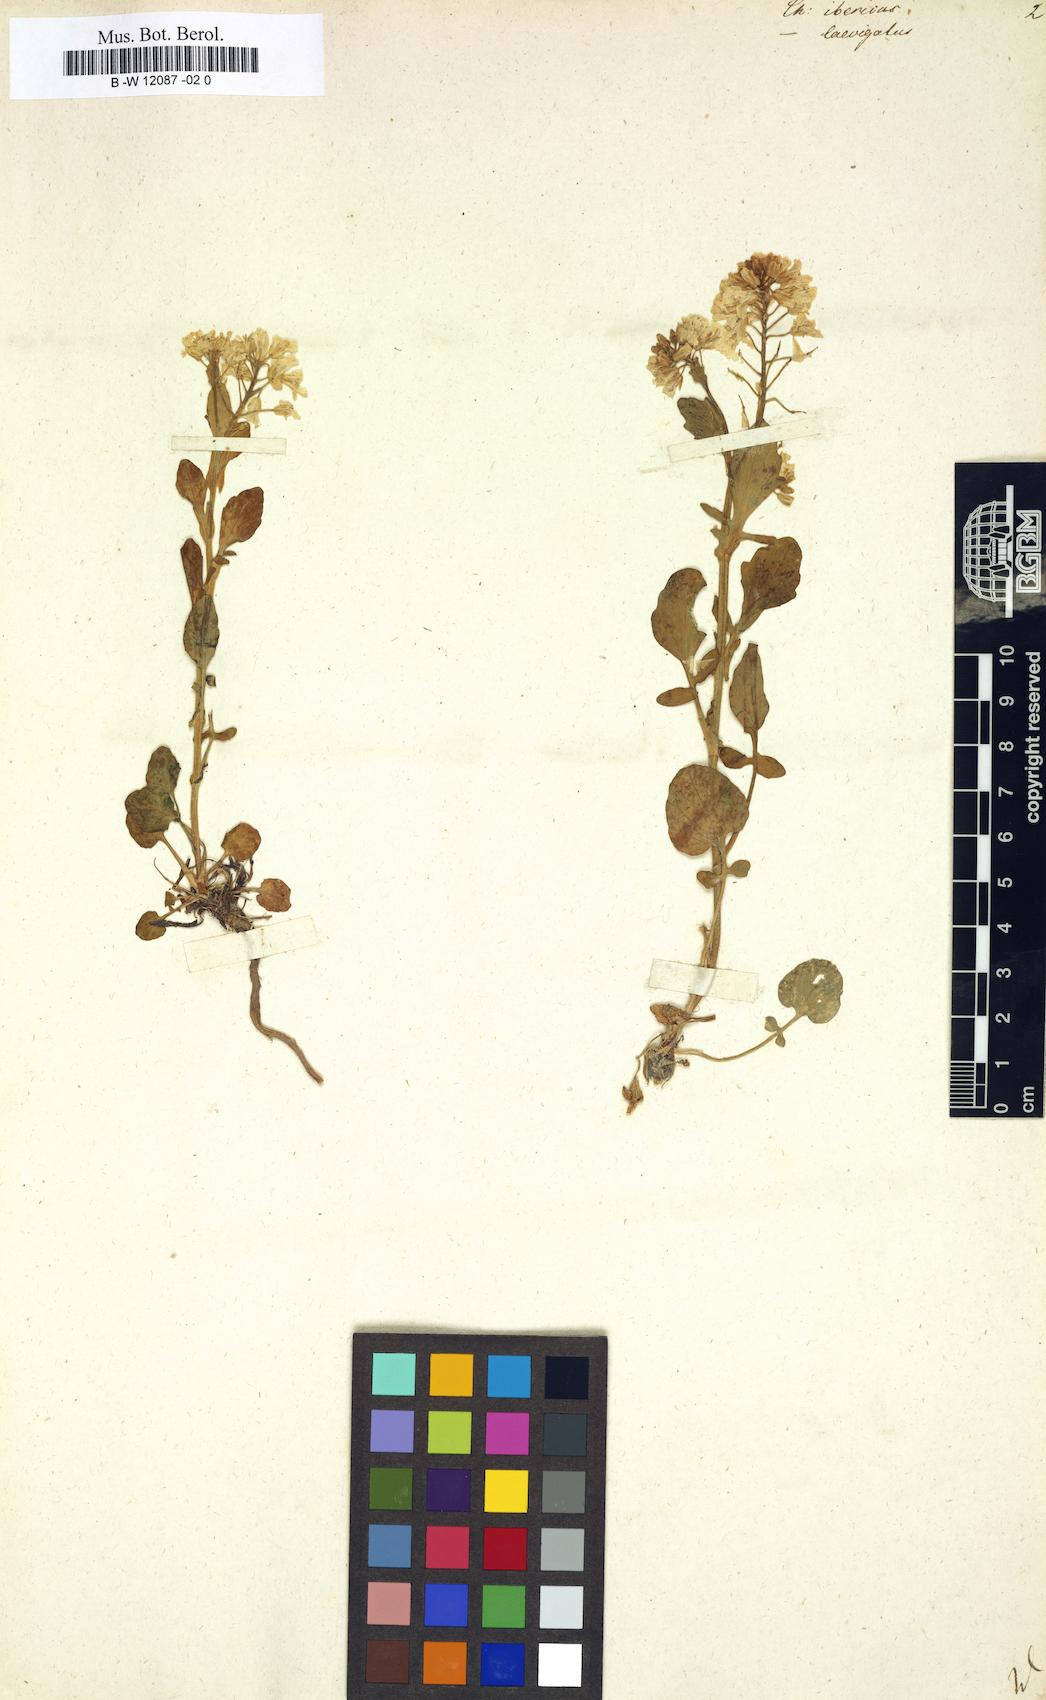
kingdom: Plantae
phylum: Tracheophyta
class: Magnoliopsida
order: Brassicales
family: Brassicaceae
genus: Erysimum
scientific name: Erysimum ibericum
